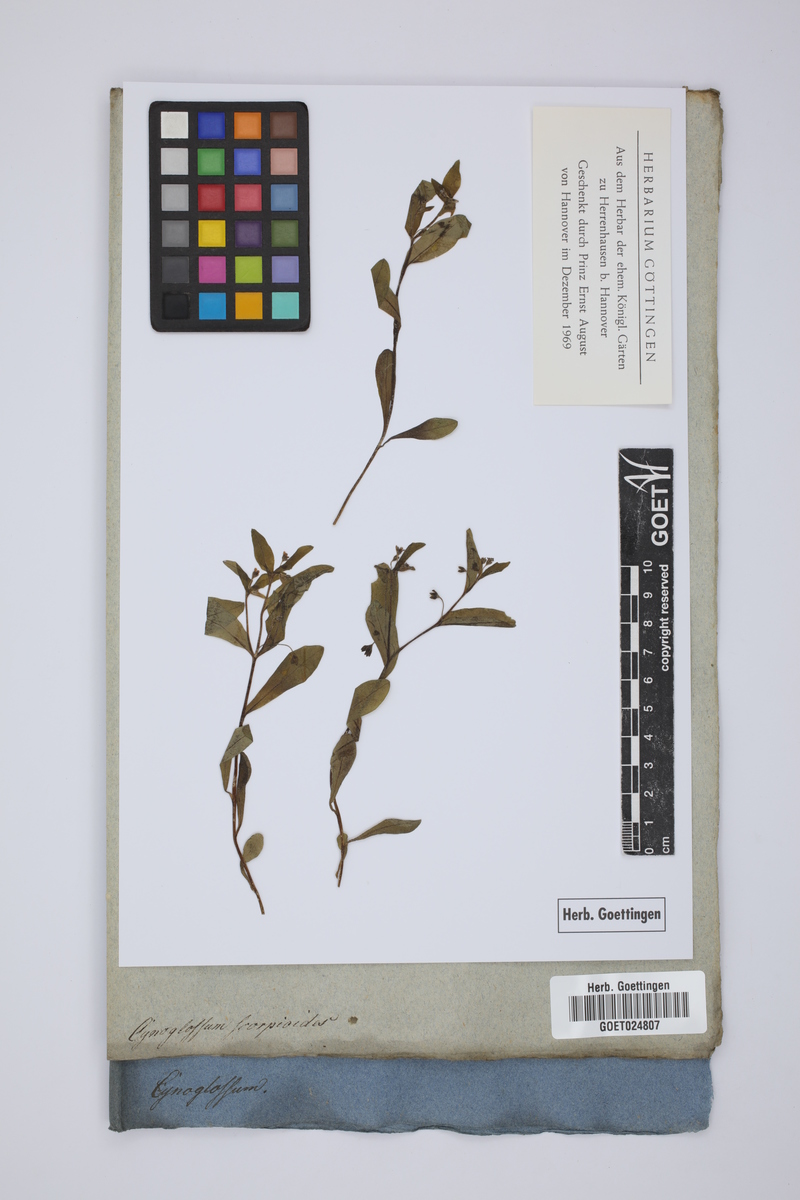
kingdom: Plantae
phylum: Tracheophyta
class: Magnoliopsida
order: Boraginales
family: Boraginaceae
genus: Memoremea
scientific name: Memoremea scorpioides
